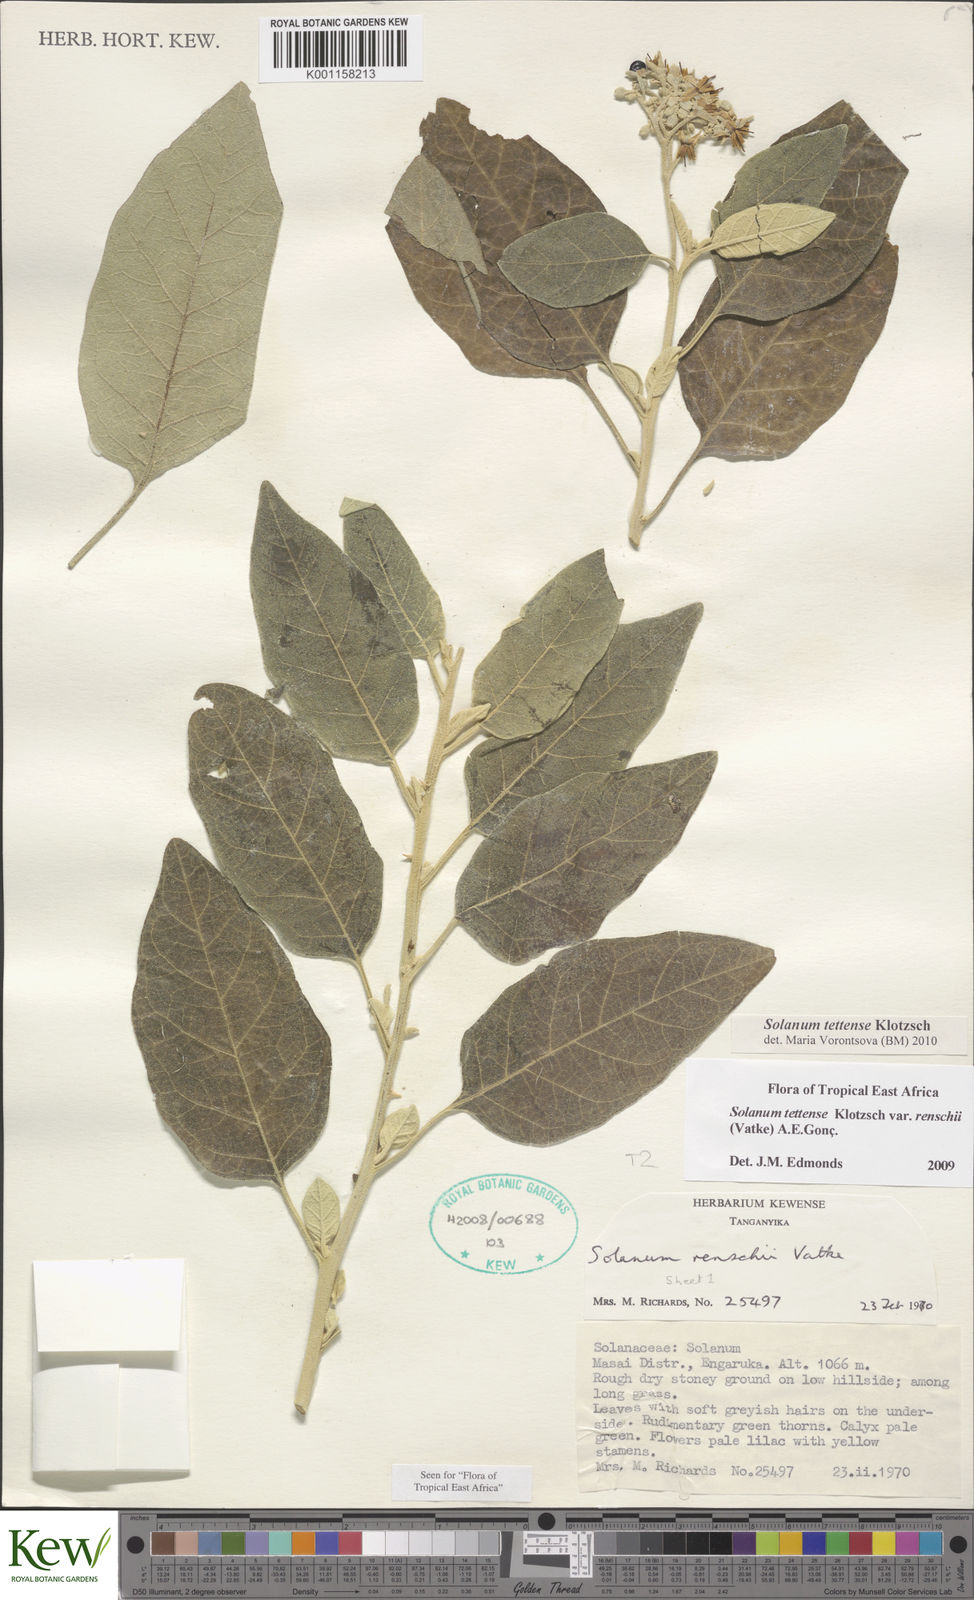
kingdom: Plantae
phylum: Tracheophyta
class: Magnoliopsida
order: Solanales
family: Solanaceae
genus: Solanum
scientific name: Solanum tettense
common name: Mozambique bitter apple
